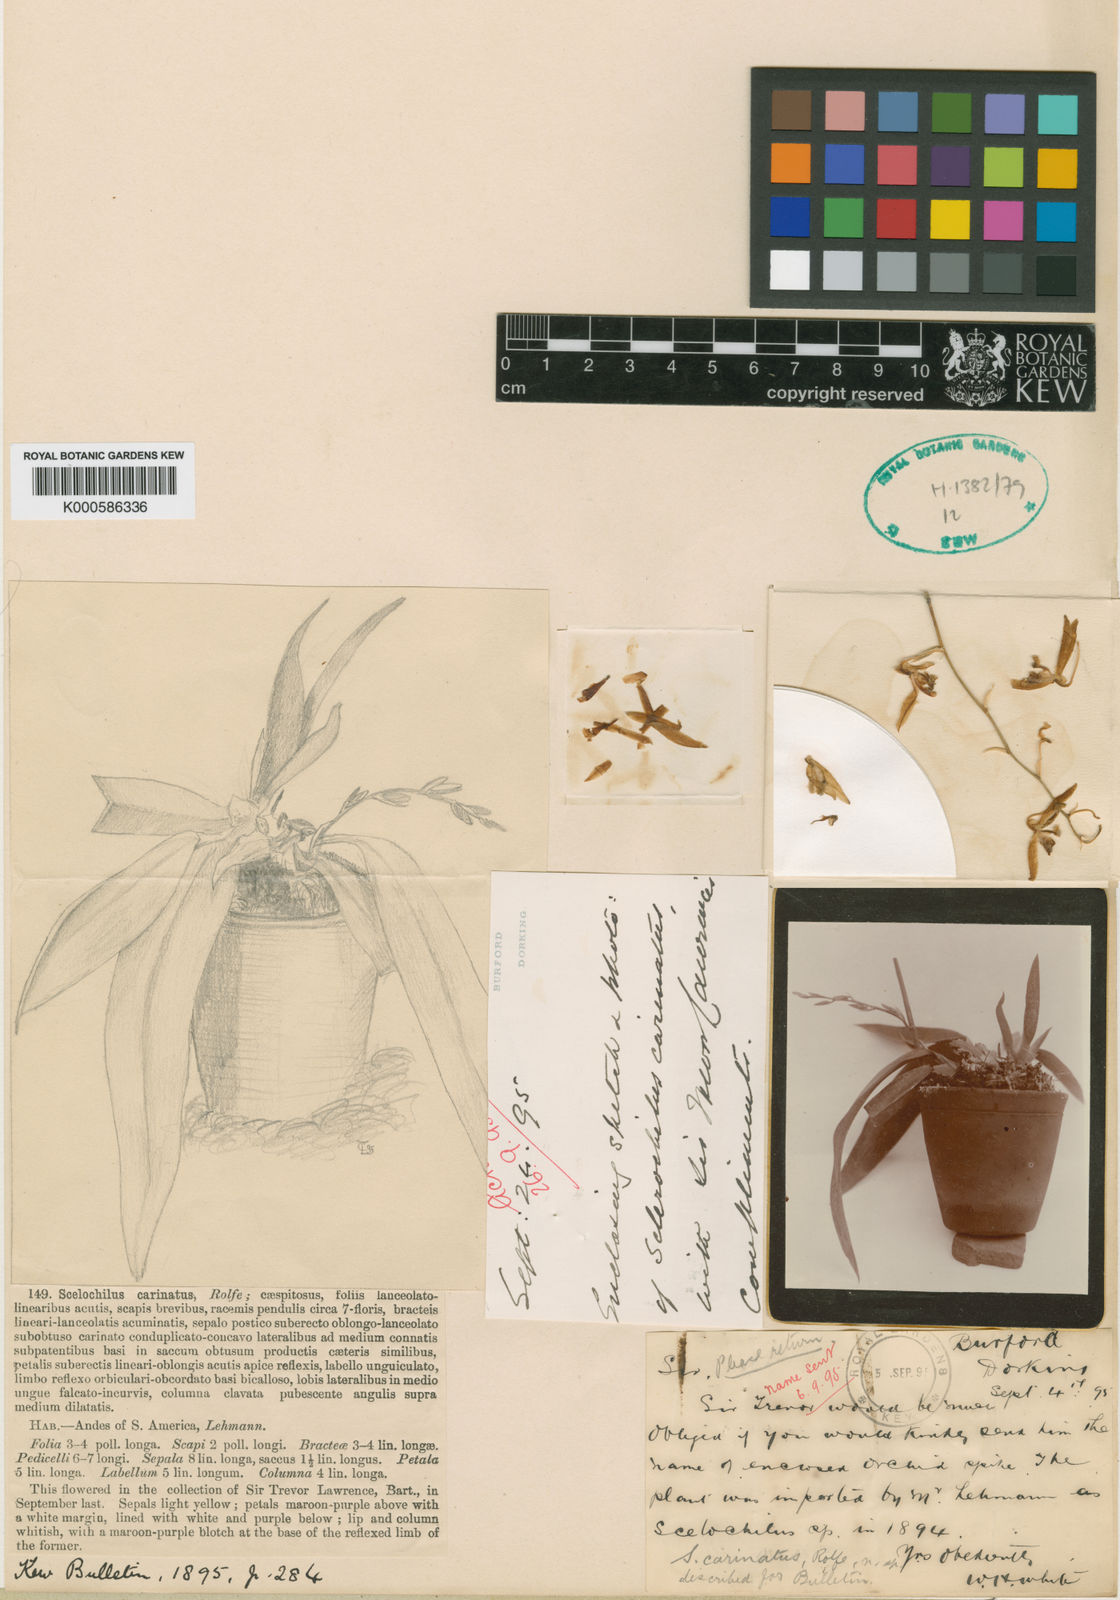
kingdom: Plantae
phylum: Tracheophyta
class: Liliopsida
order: Asparagales
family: Orchidaceae
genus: Comparettia
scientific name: Comparettia carinata
